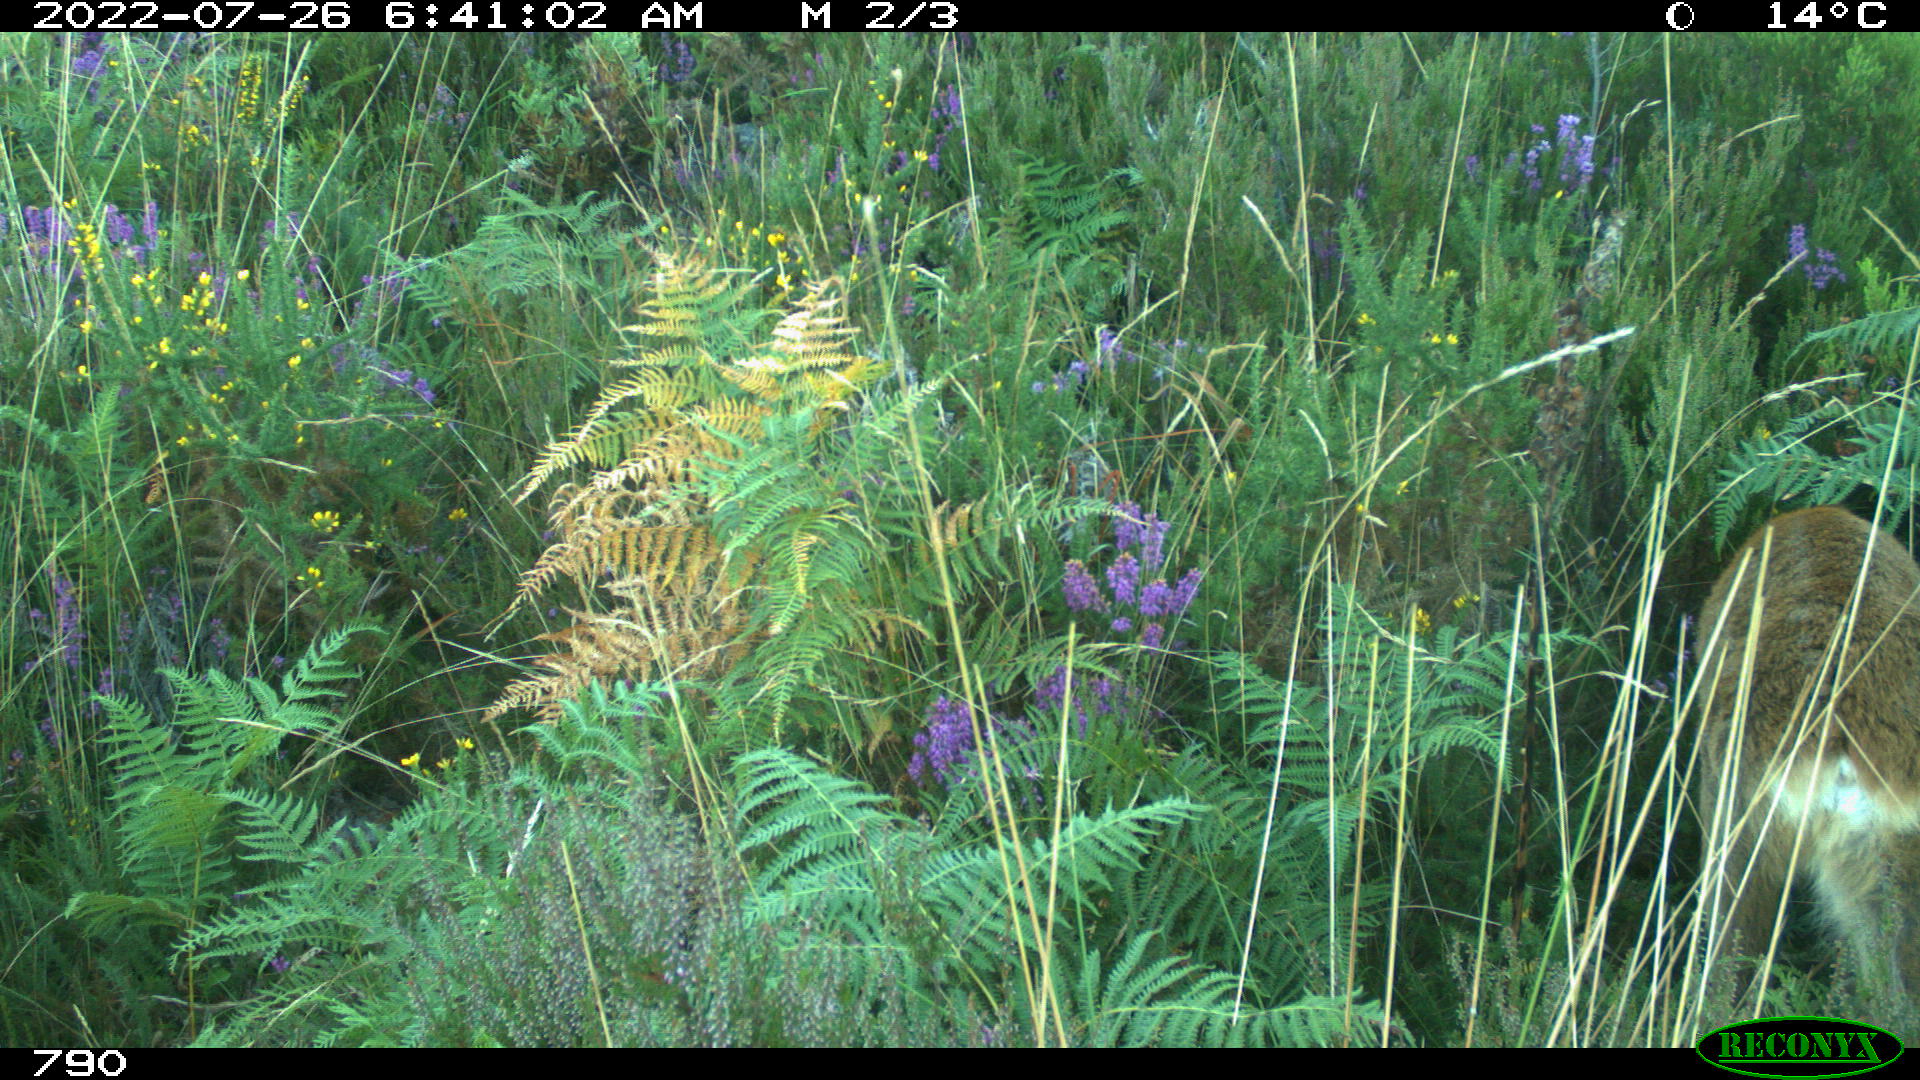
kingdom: Animalia
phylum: Chordata
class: Mammalia
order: Artiodactyla
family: Cervidae
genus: Capreolus
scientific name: Capreolus capreolus
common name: Western roe deer
